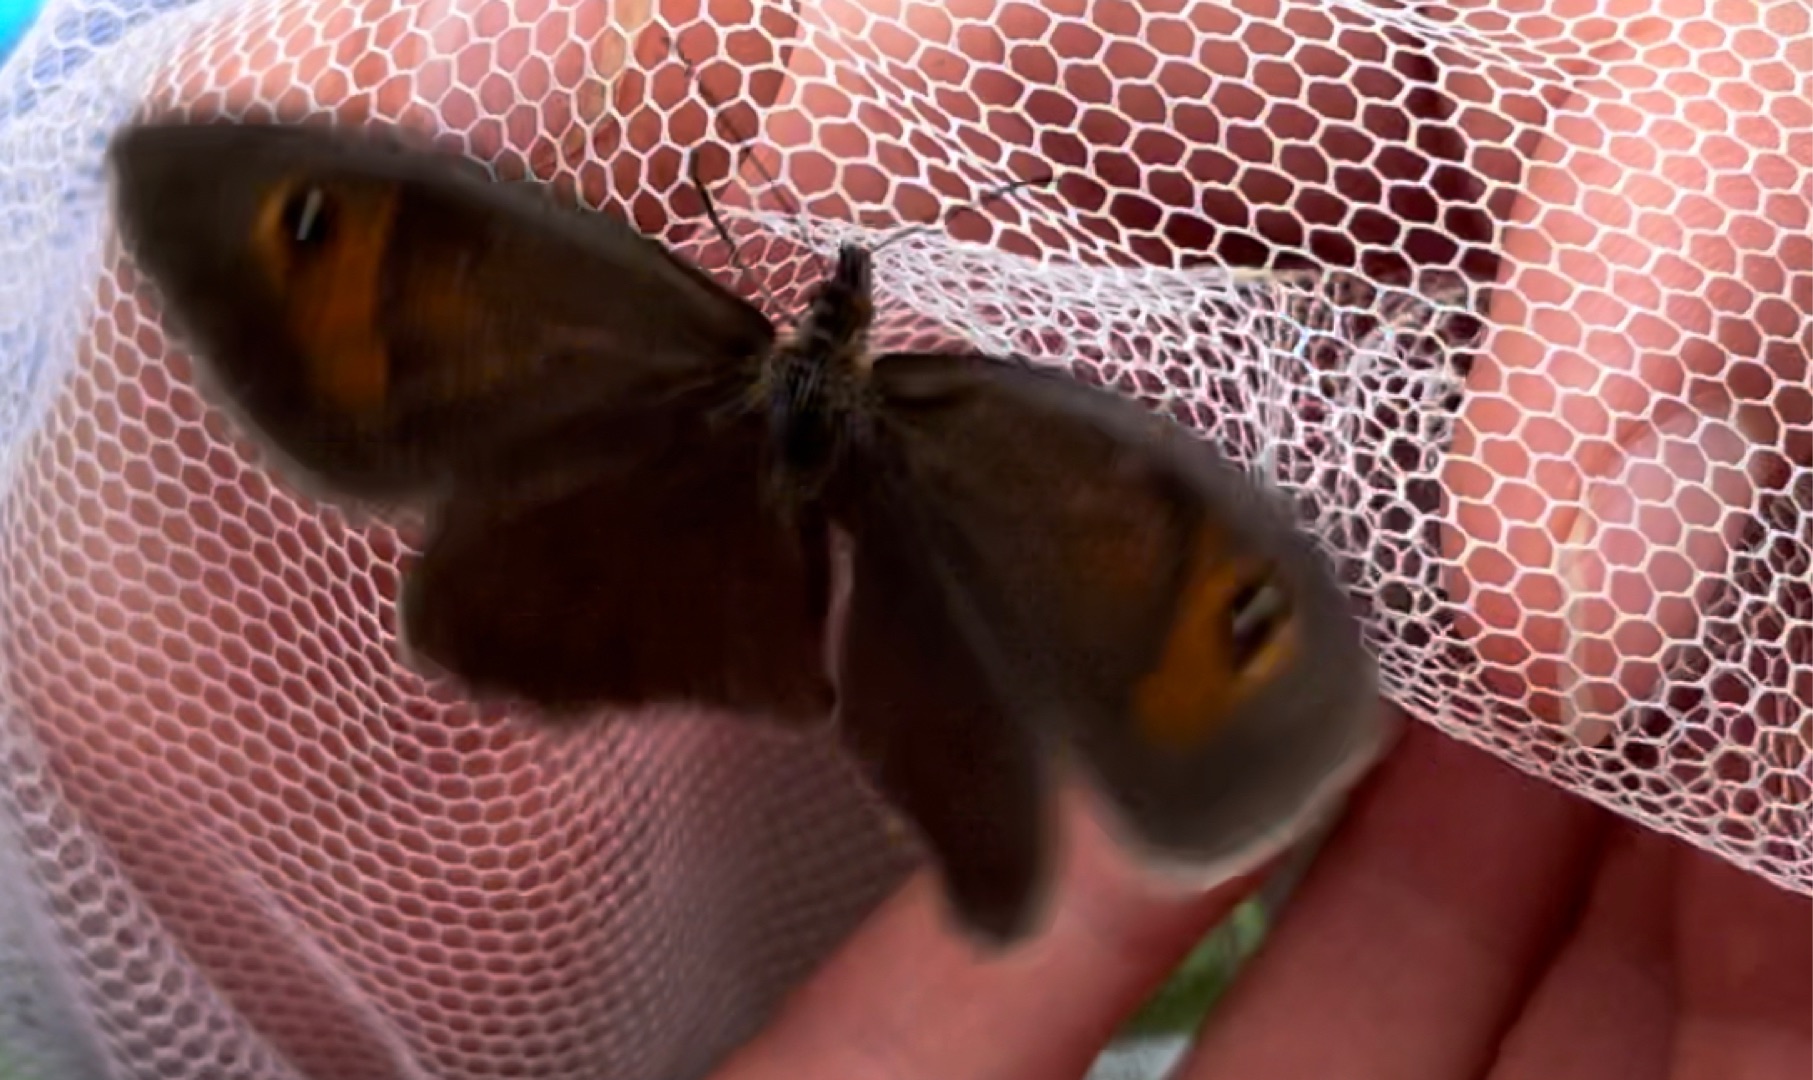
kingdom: Animalia
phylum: Arthropoda
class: Insecta
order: Lepidoptera
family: Nymphalidae
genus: Maniola
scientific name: Maniola jurtina
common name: Græsrandøje
